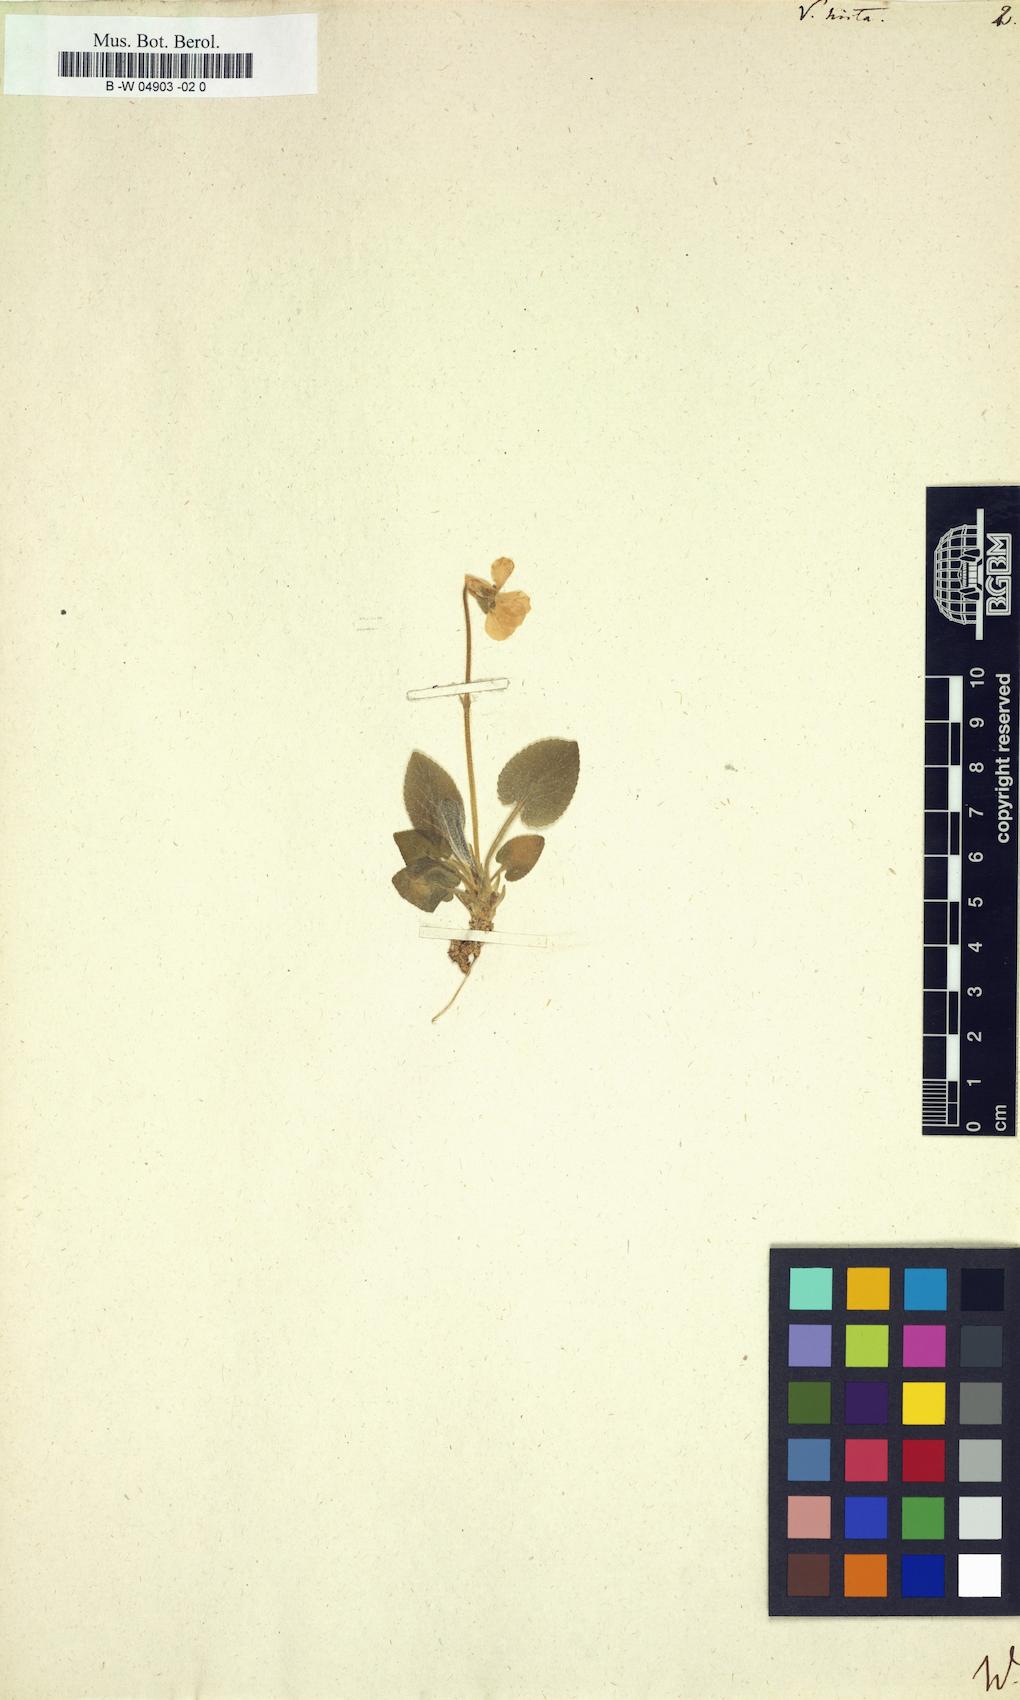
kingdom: Plantae
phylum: Tracheophyta
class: Magnoliopsida
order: Malpighiales
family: Violaceae
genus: Viola
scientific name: Viola hirta
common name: Hairy violet
